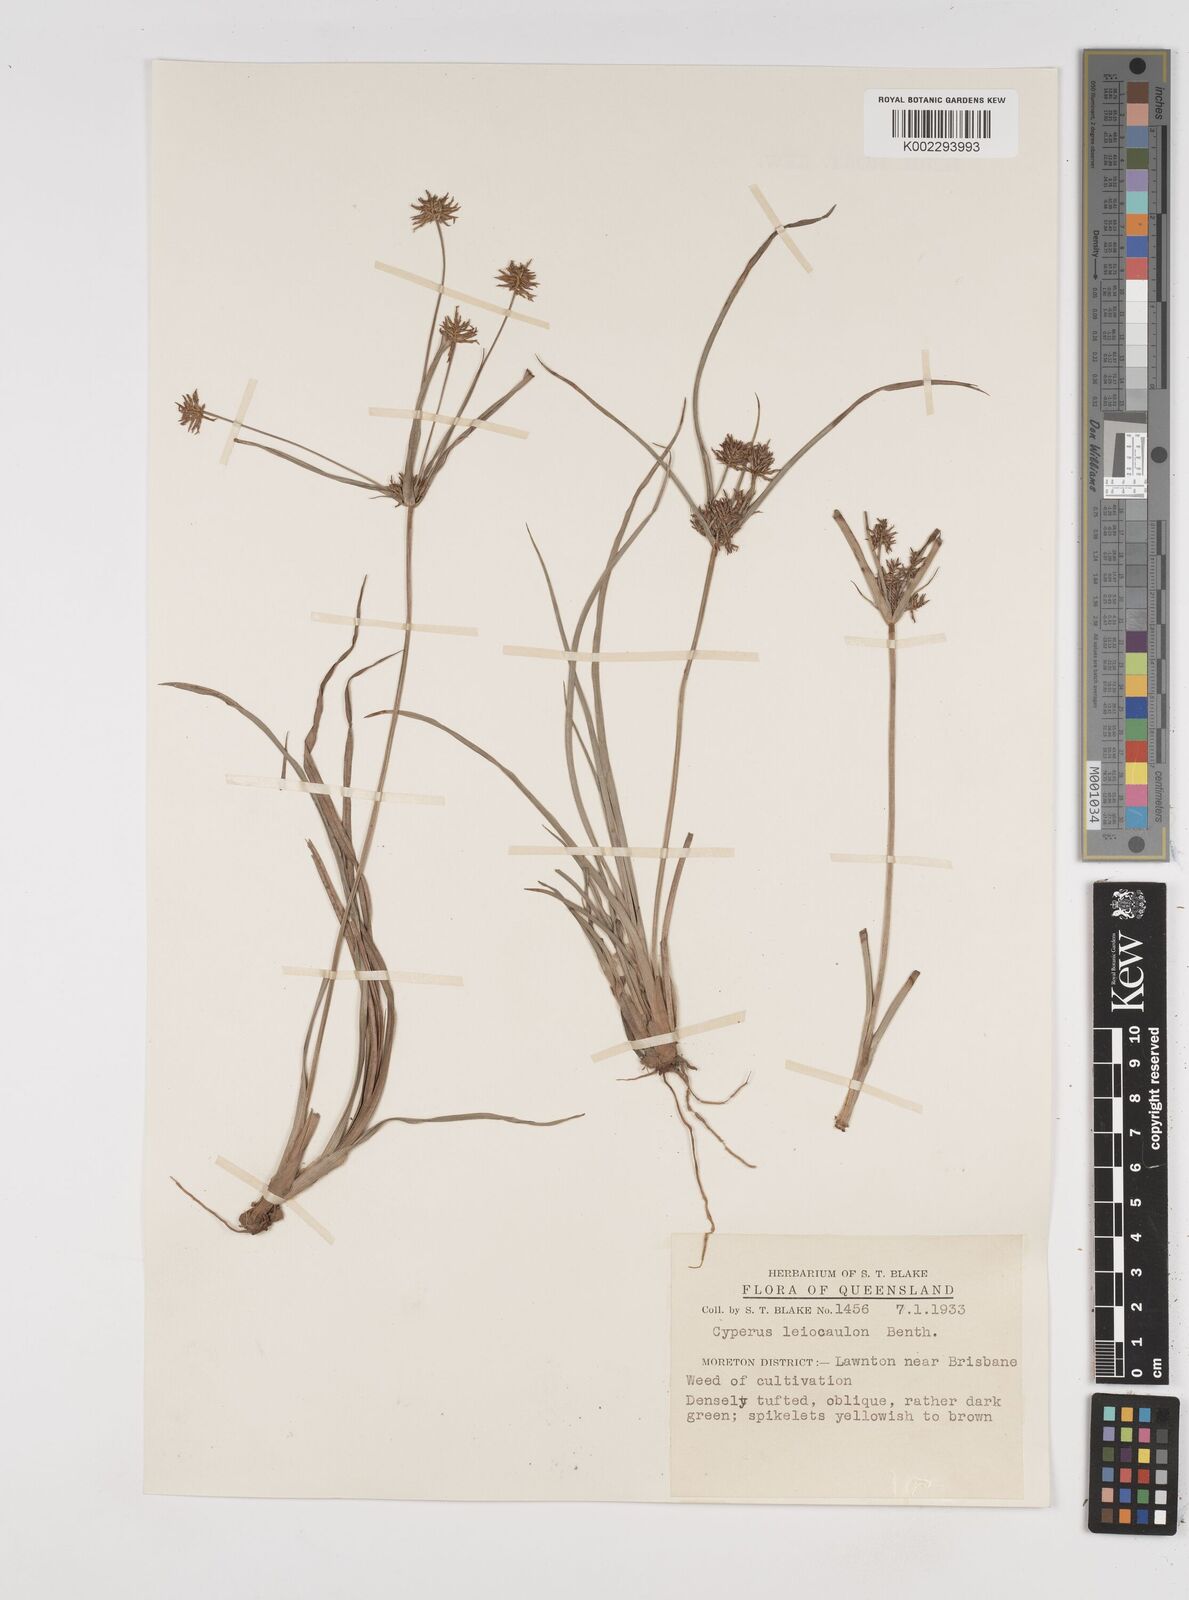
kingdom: Plantae
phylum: Tracheophyta
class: Liliopsida
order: Poales
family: Cyperaceae
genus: Cyperus
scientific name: Cyperus leiocaulon
